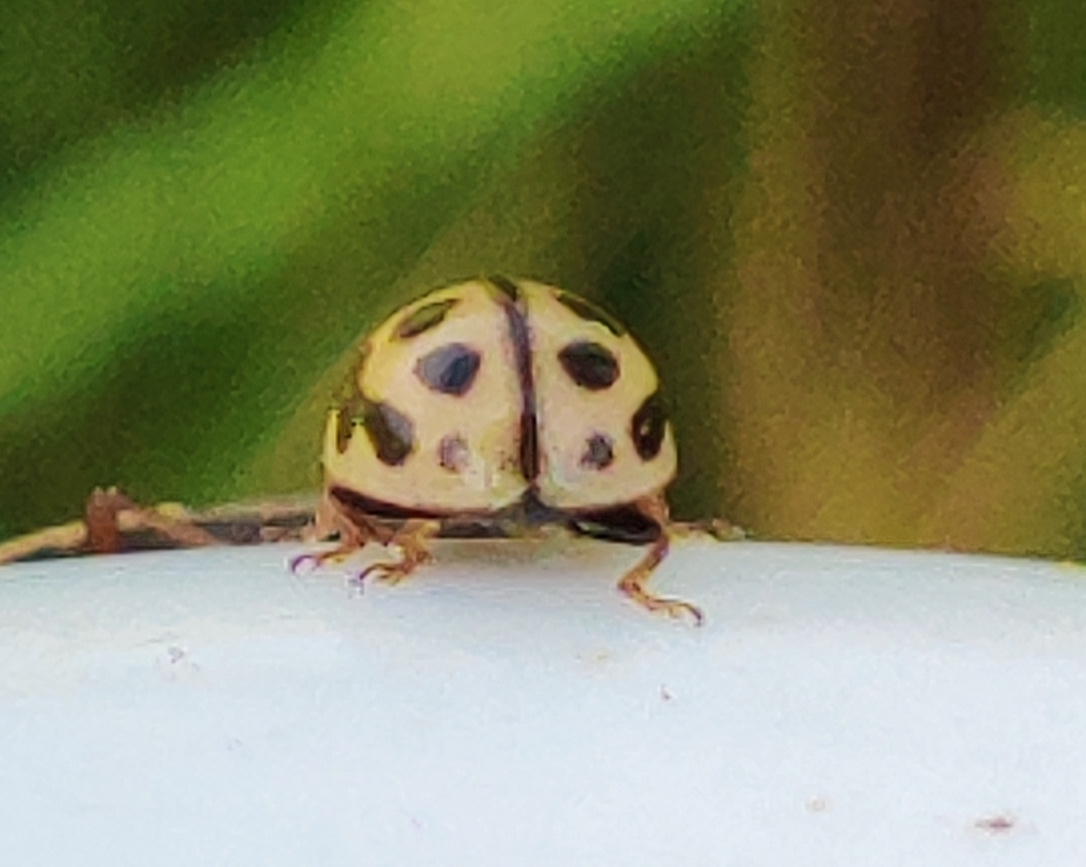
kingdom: Animalia
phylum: Arthropoda
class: Insecta
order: Coleoptera
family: Coccinellidae
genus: Tytthaspis
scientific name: Tytthaspis sedecimpunctata
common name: Sekstenprikket mariehøne
